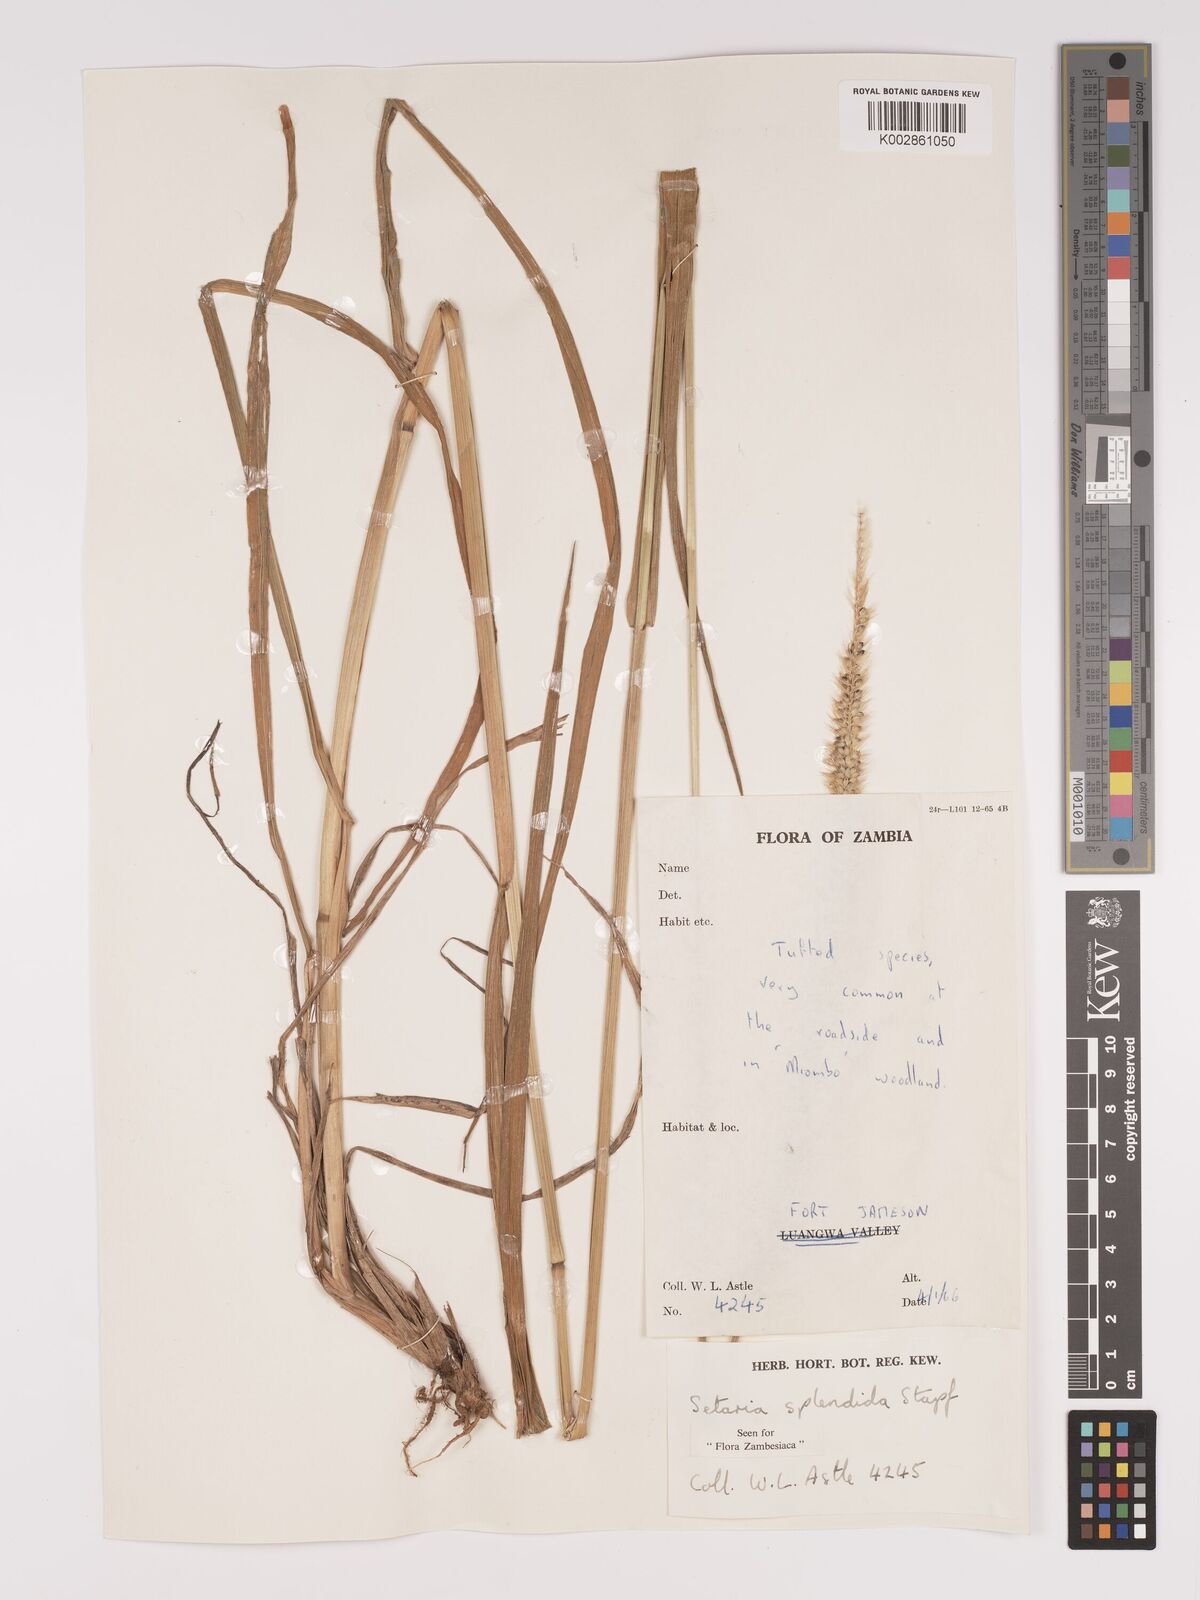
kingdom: Plantae
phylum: Tracheophyta
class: Liliopsida
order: Poales
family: Poaceae
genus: Setaria
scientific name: Setaria sphacelata
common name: African bristlegrass
